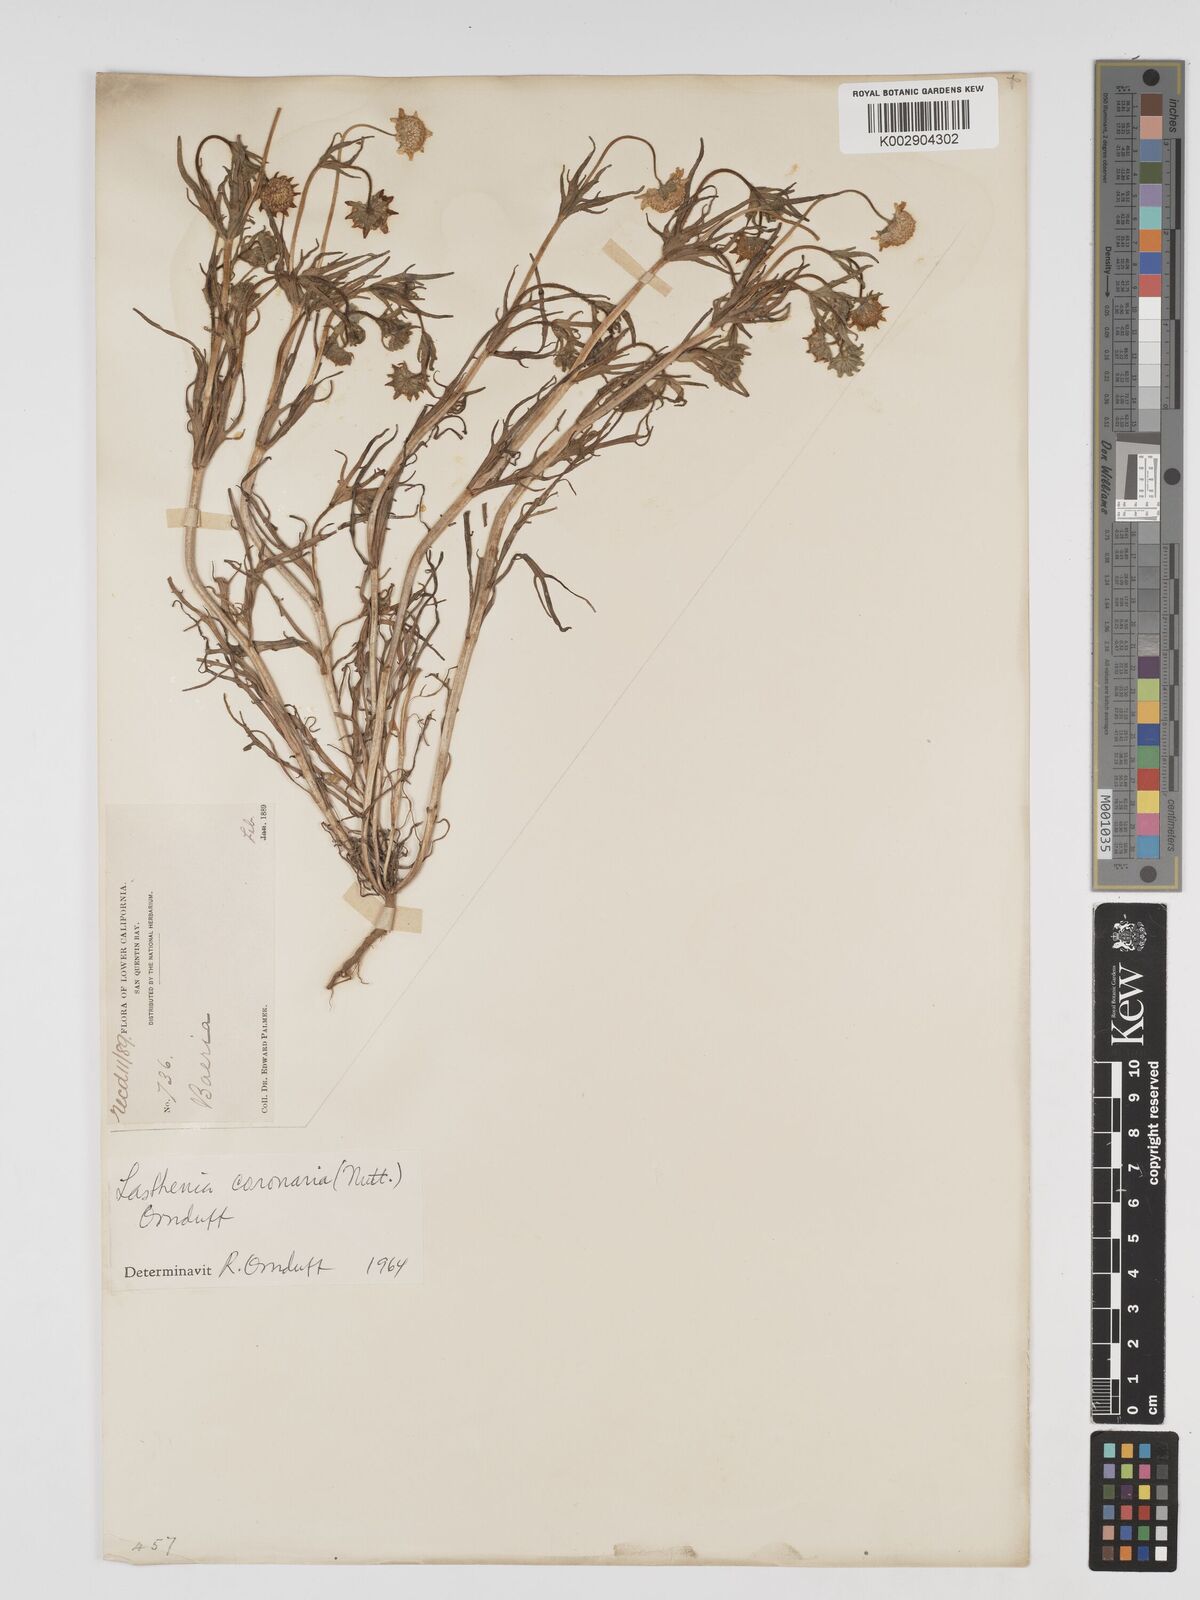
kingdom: Plantae
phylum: Tracheophyta
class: Magnoliopsida
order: Asterales
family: Asteraceae
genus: Lasthenia
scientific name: Lasthenia coronaria
